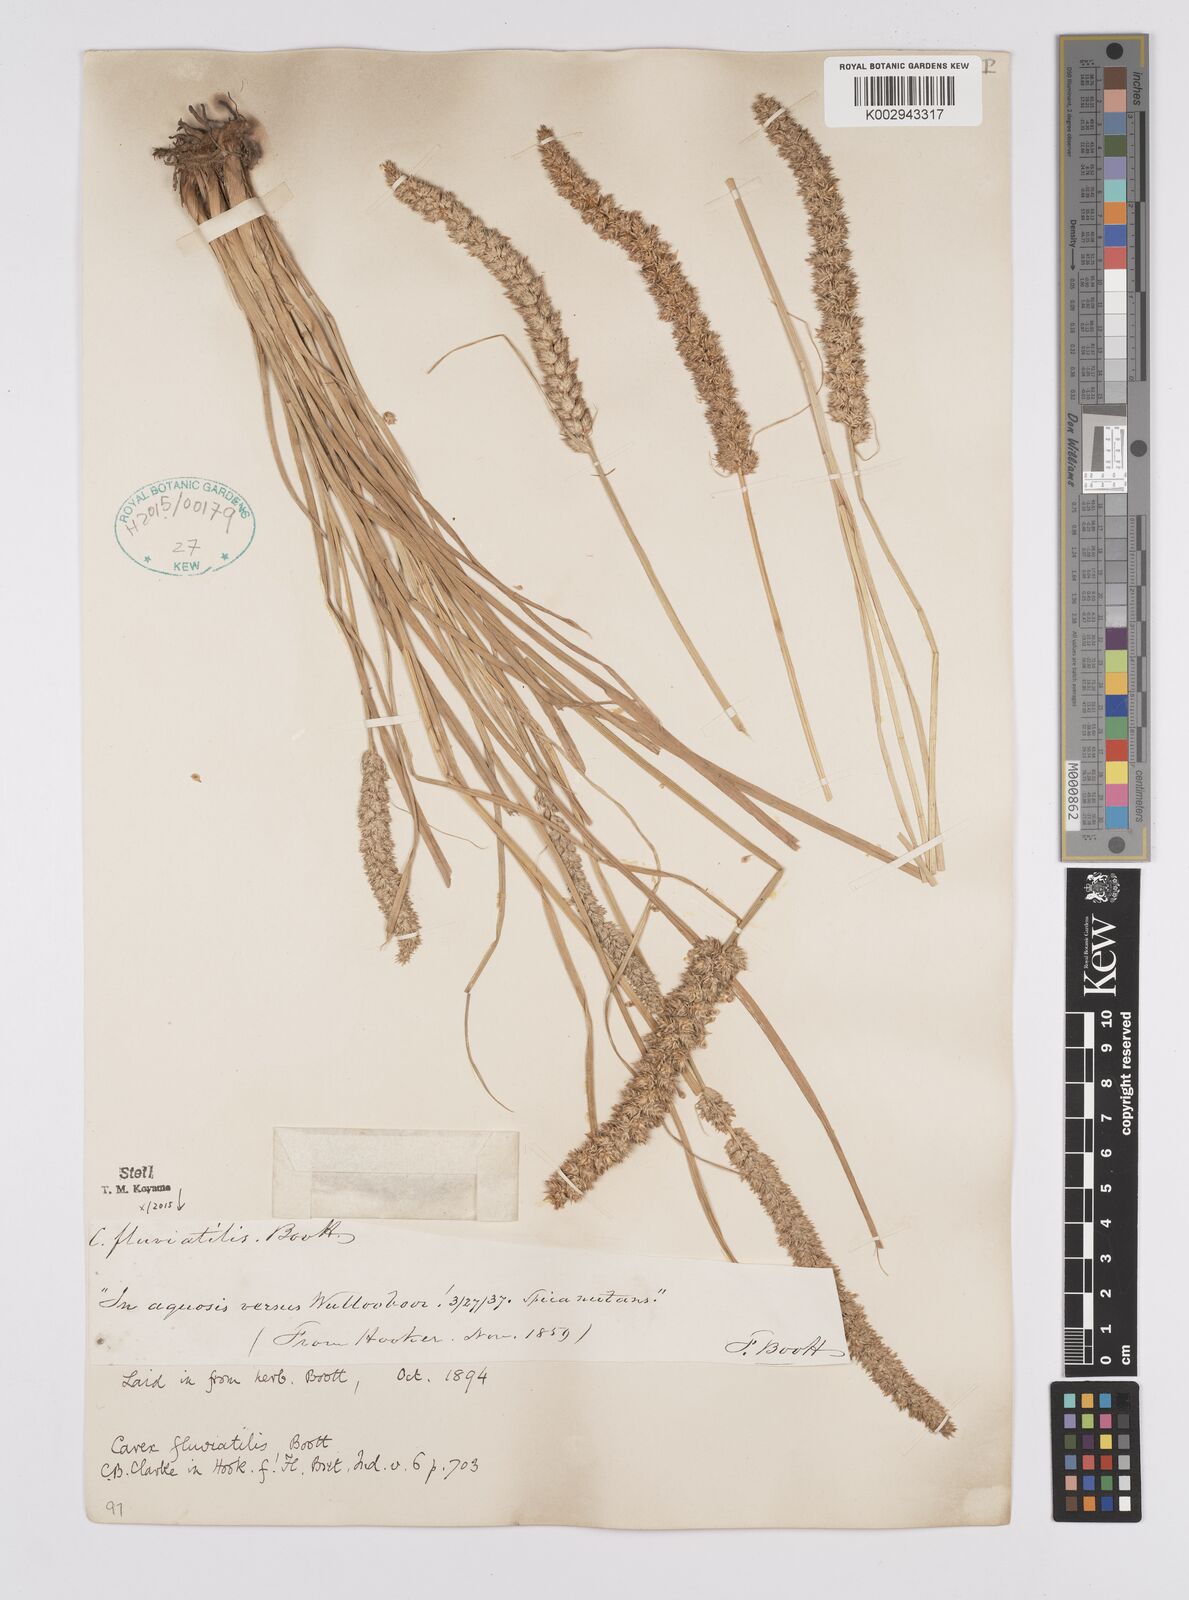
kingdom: Plantae
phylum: Tracheophyta
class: Liliopsida
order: Poales
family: Cyperaceae
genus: Carex
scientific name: Carex fluviatilis
